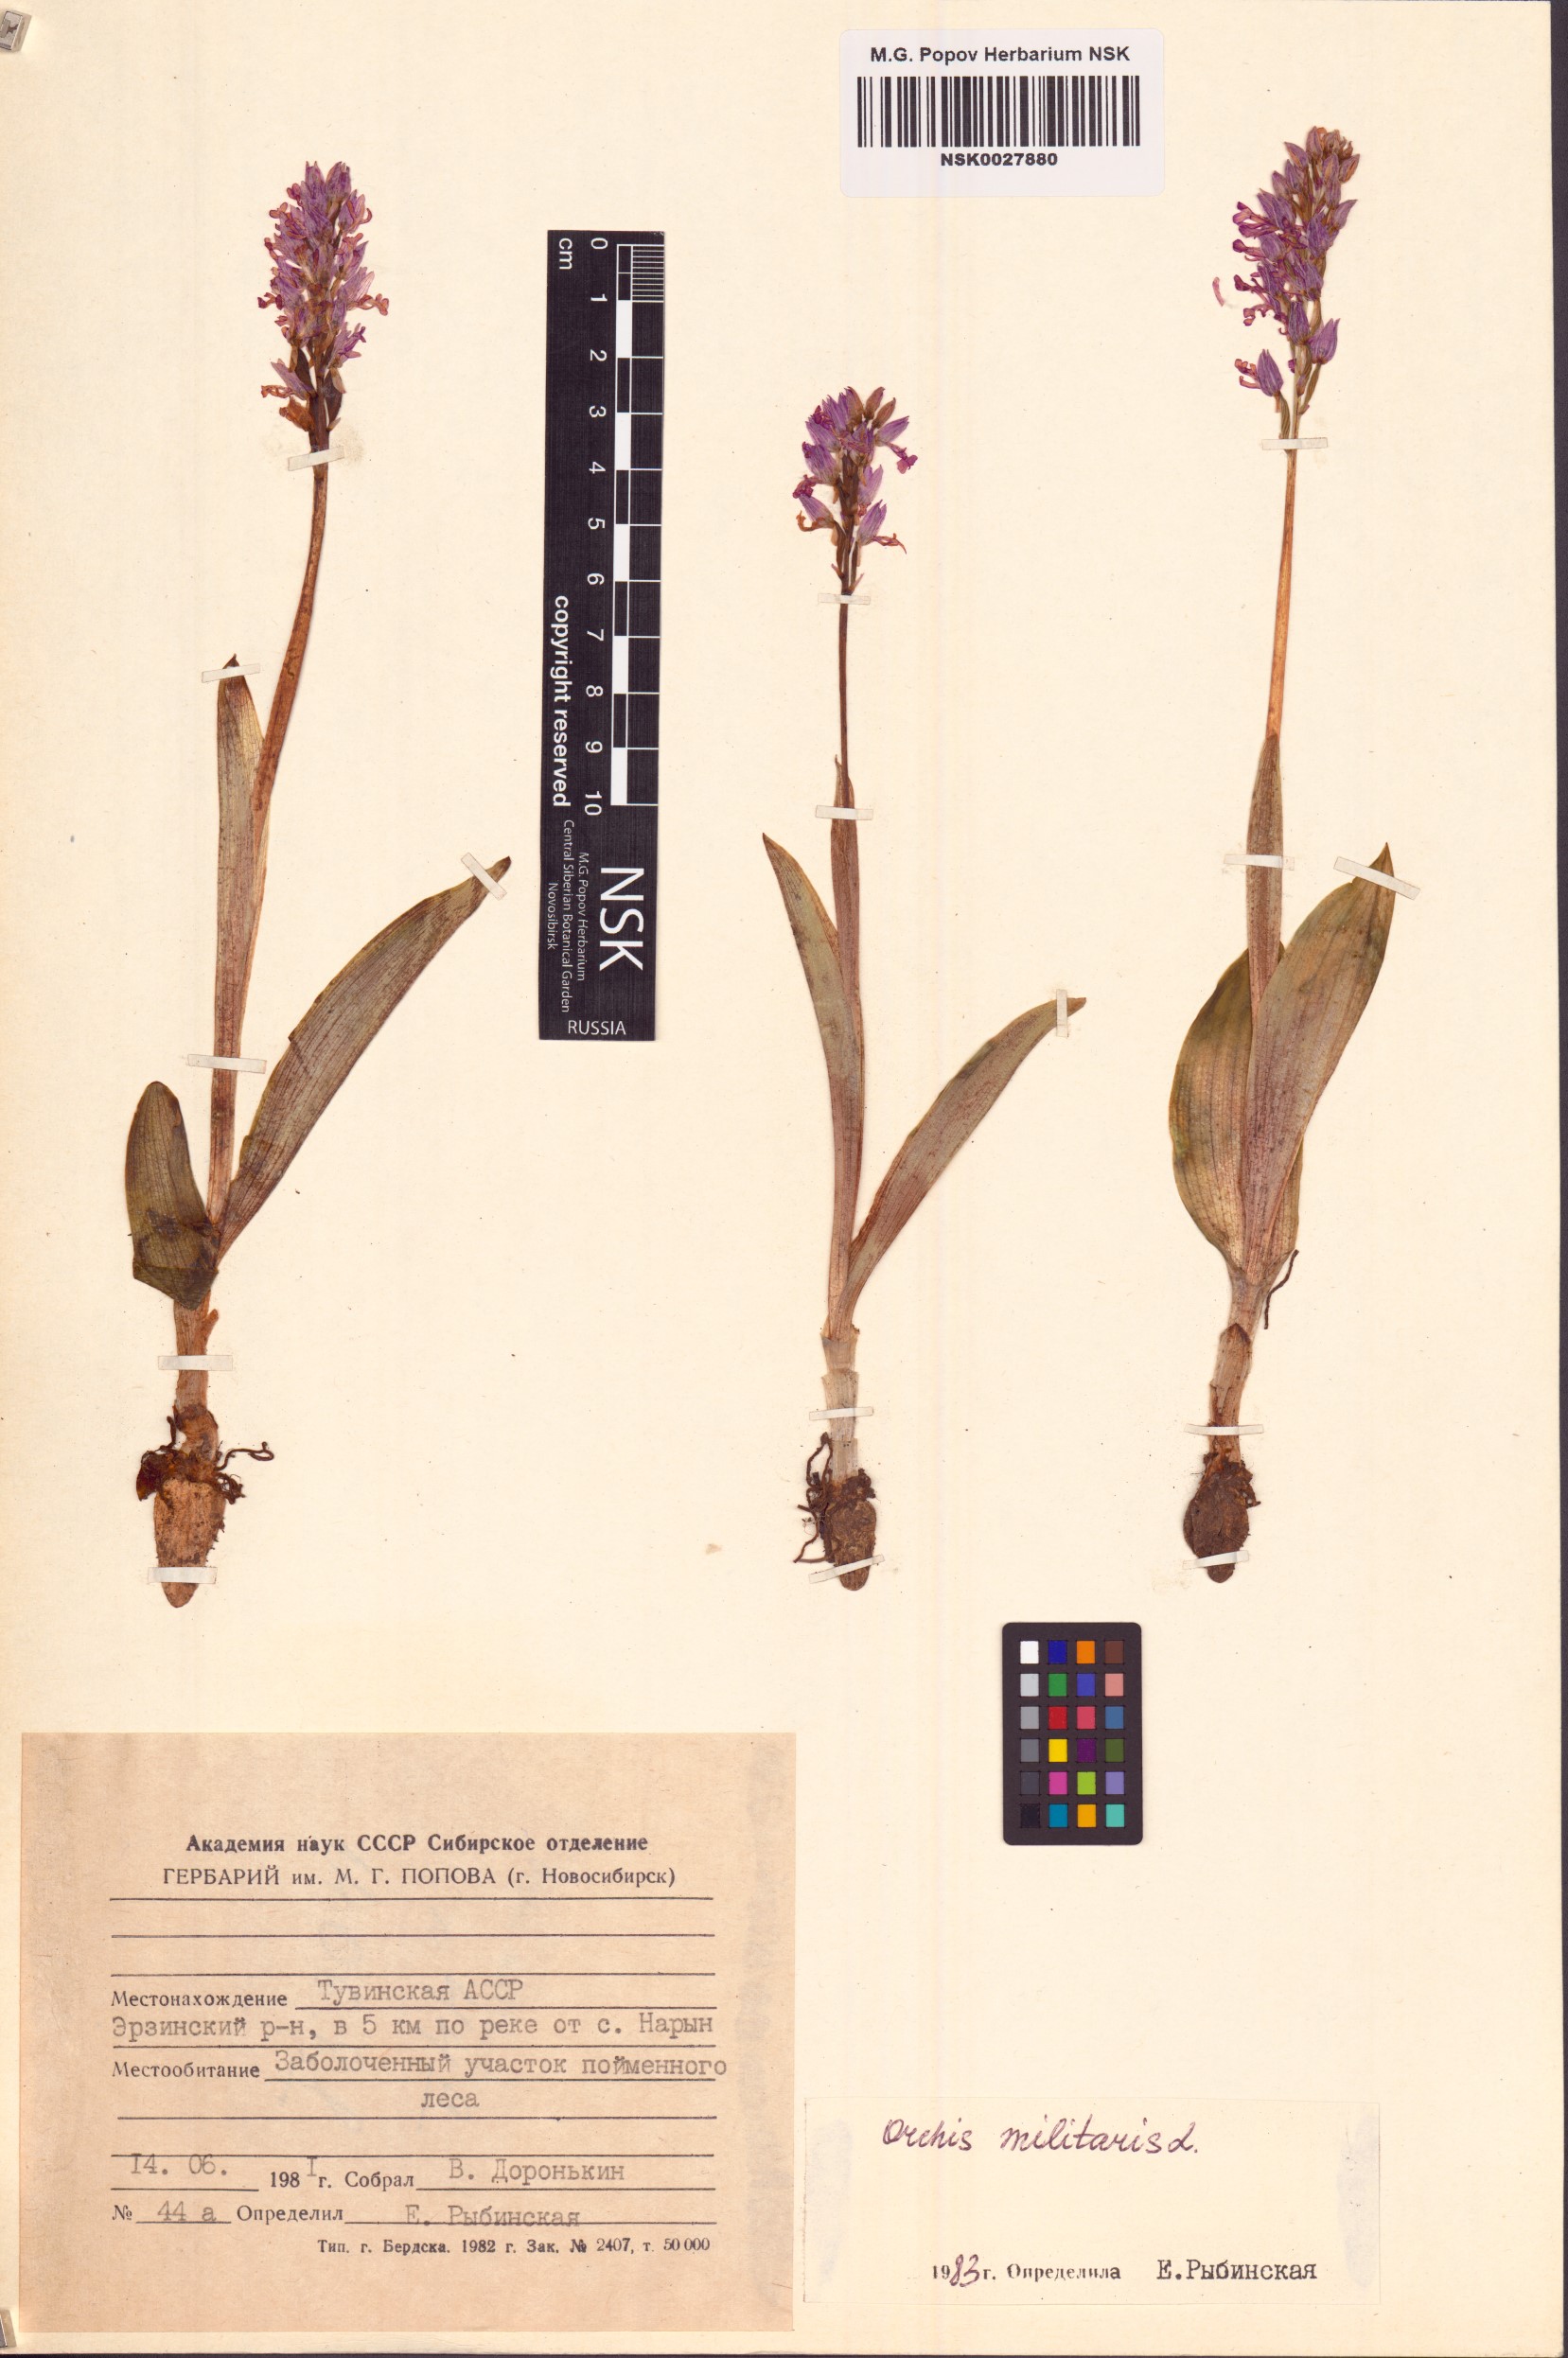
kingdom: Plantae
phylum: Tracheophyta
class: Liliopsida
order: Asparagales
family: Orchidaceae
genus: Orchis
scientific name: Orchis militaris
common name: Military orchid
